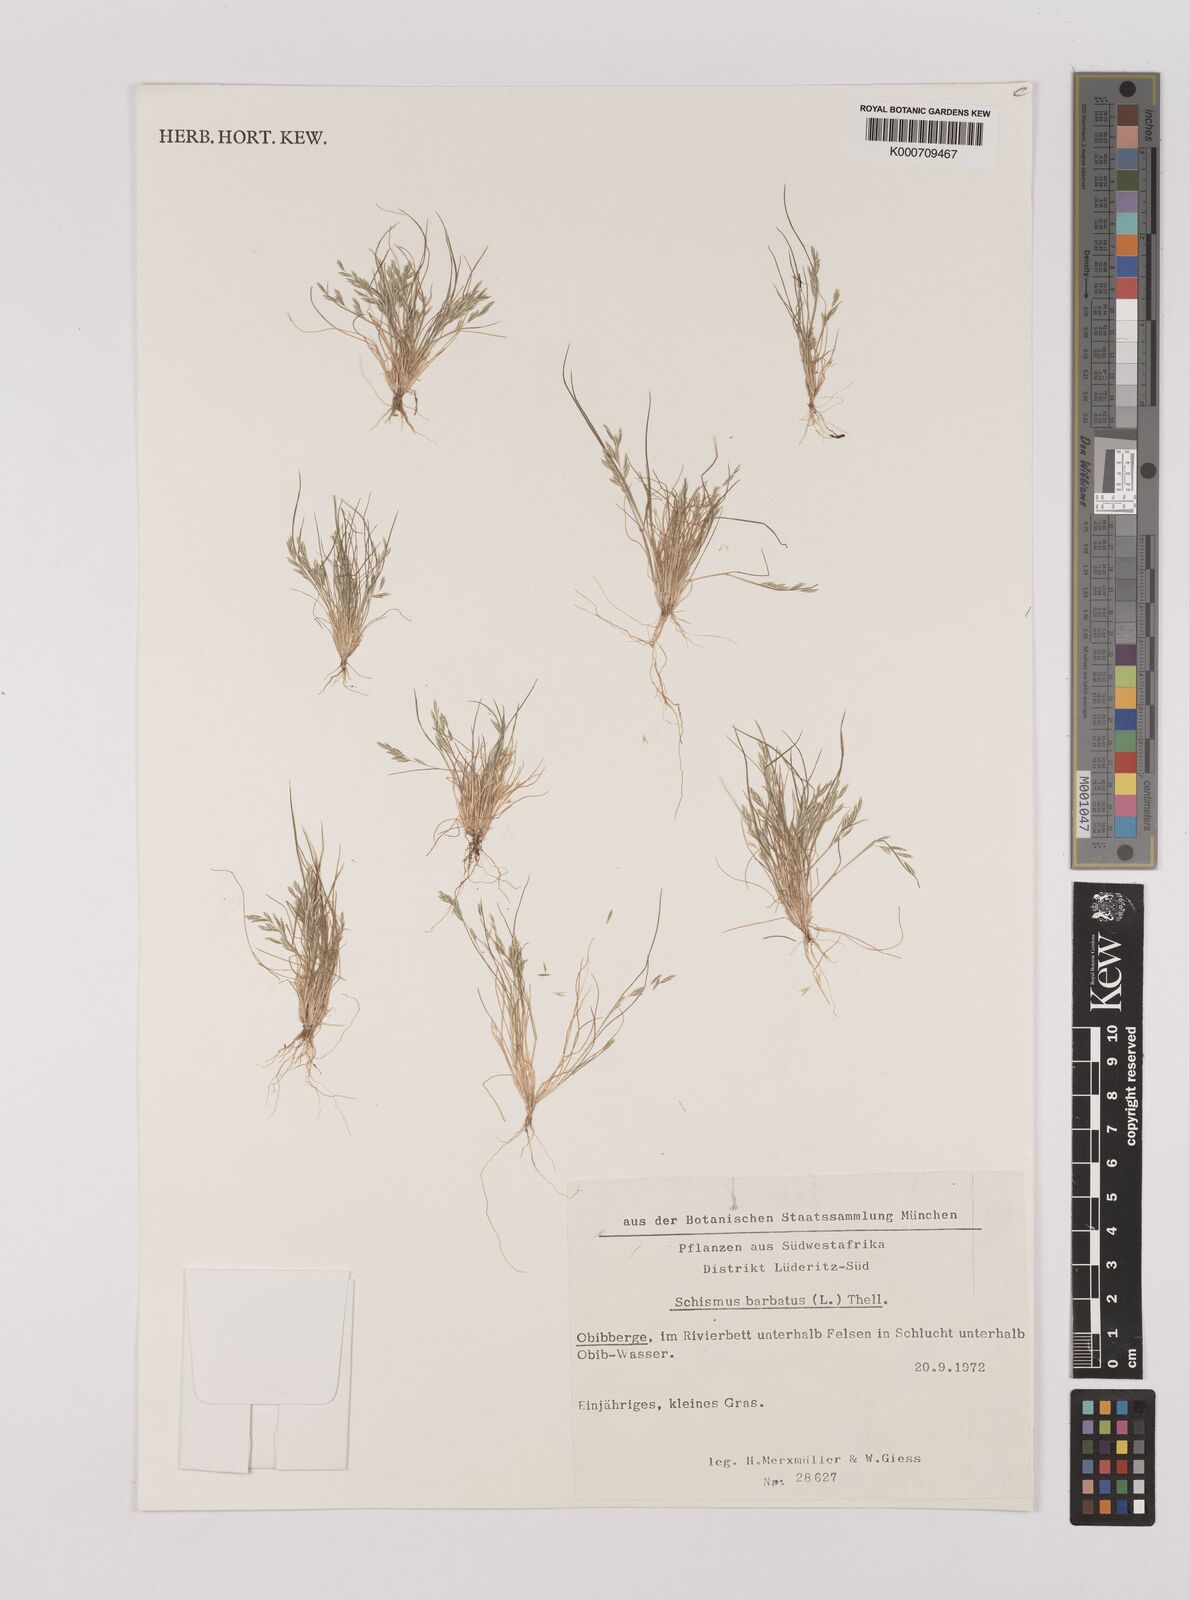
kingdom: Plantae
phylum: Tracheophyta
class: Liliopsida
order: Poales
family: Poaceae
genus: Schismus
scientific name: Schismus barbatus
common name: Kelch-grass
